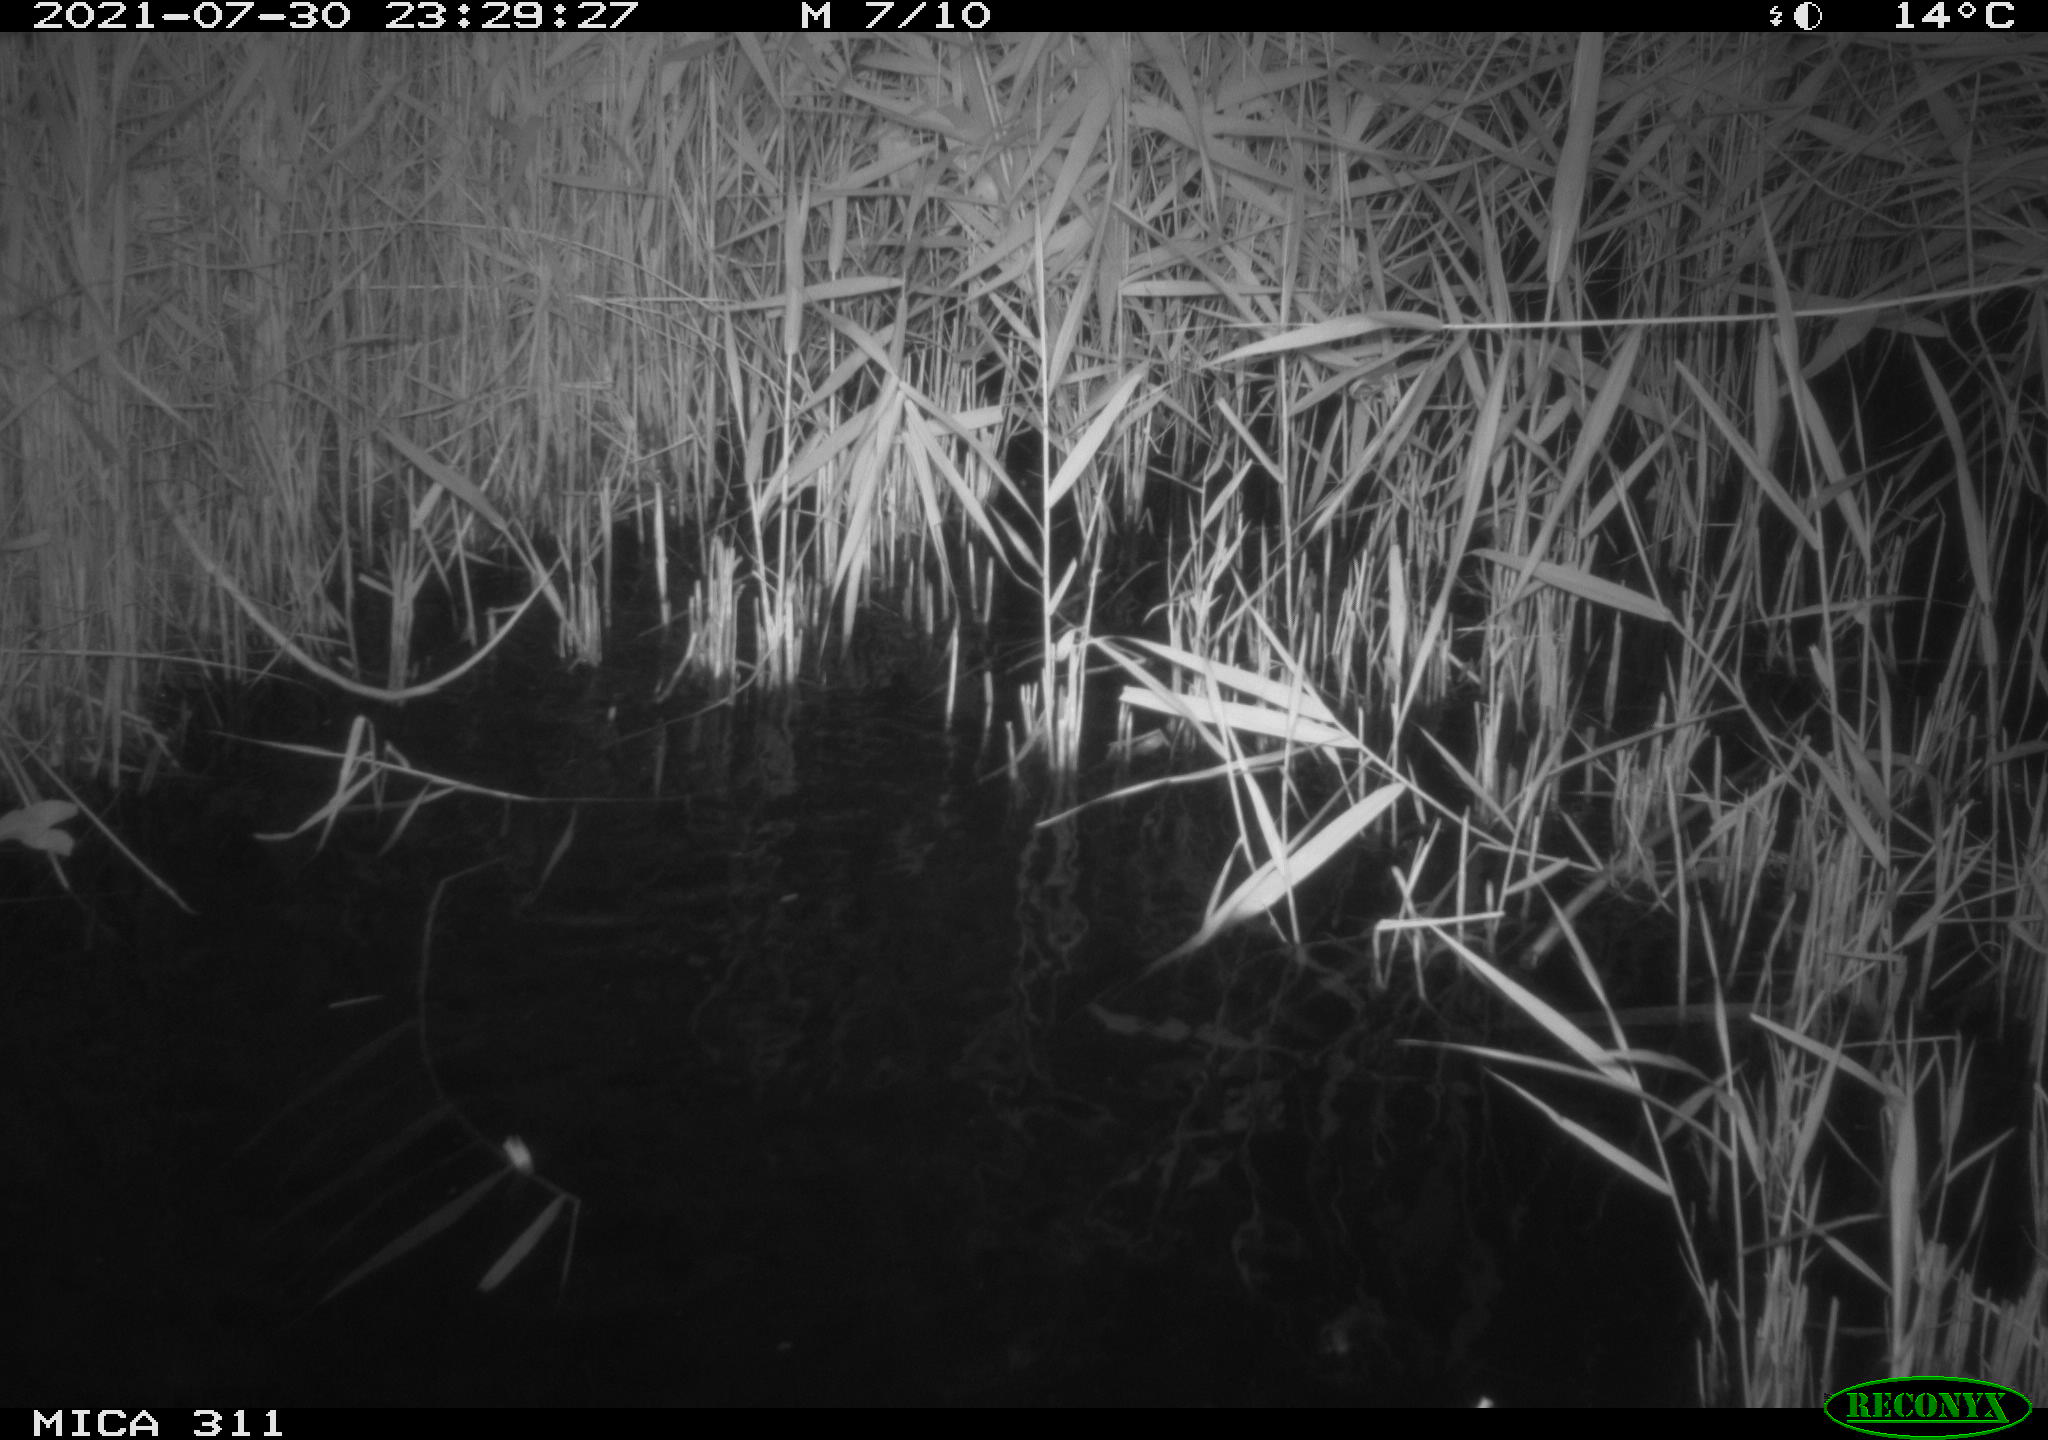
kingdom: Animalia
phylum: Chordata
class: Mammalia
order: Rodentia
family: Muridae
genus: Rattus
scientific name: Rattus norvegicus
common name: Brown rat
